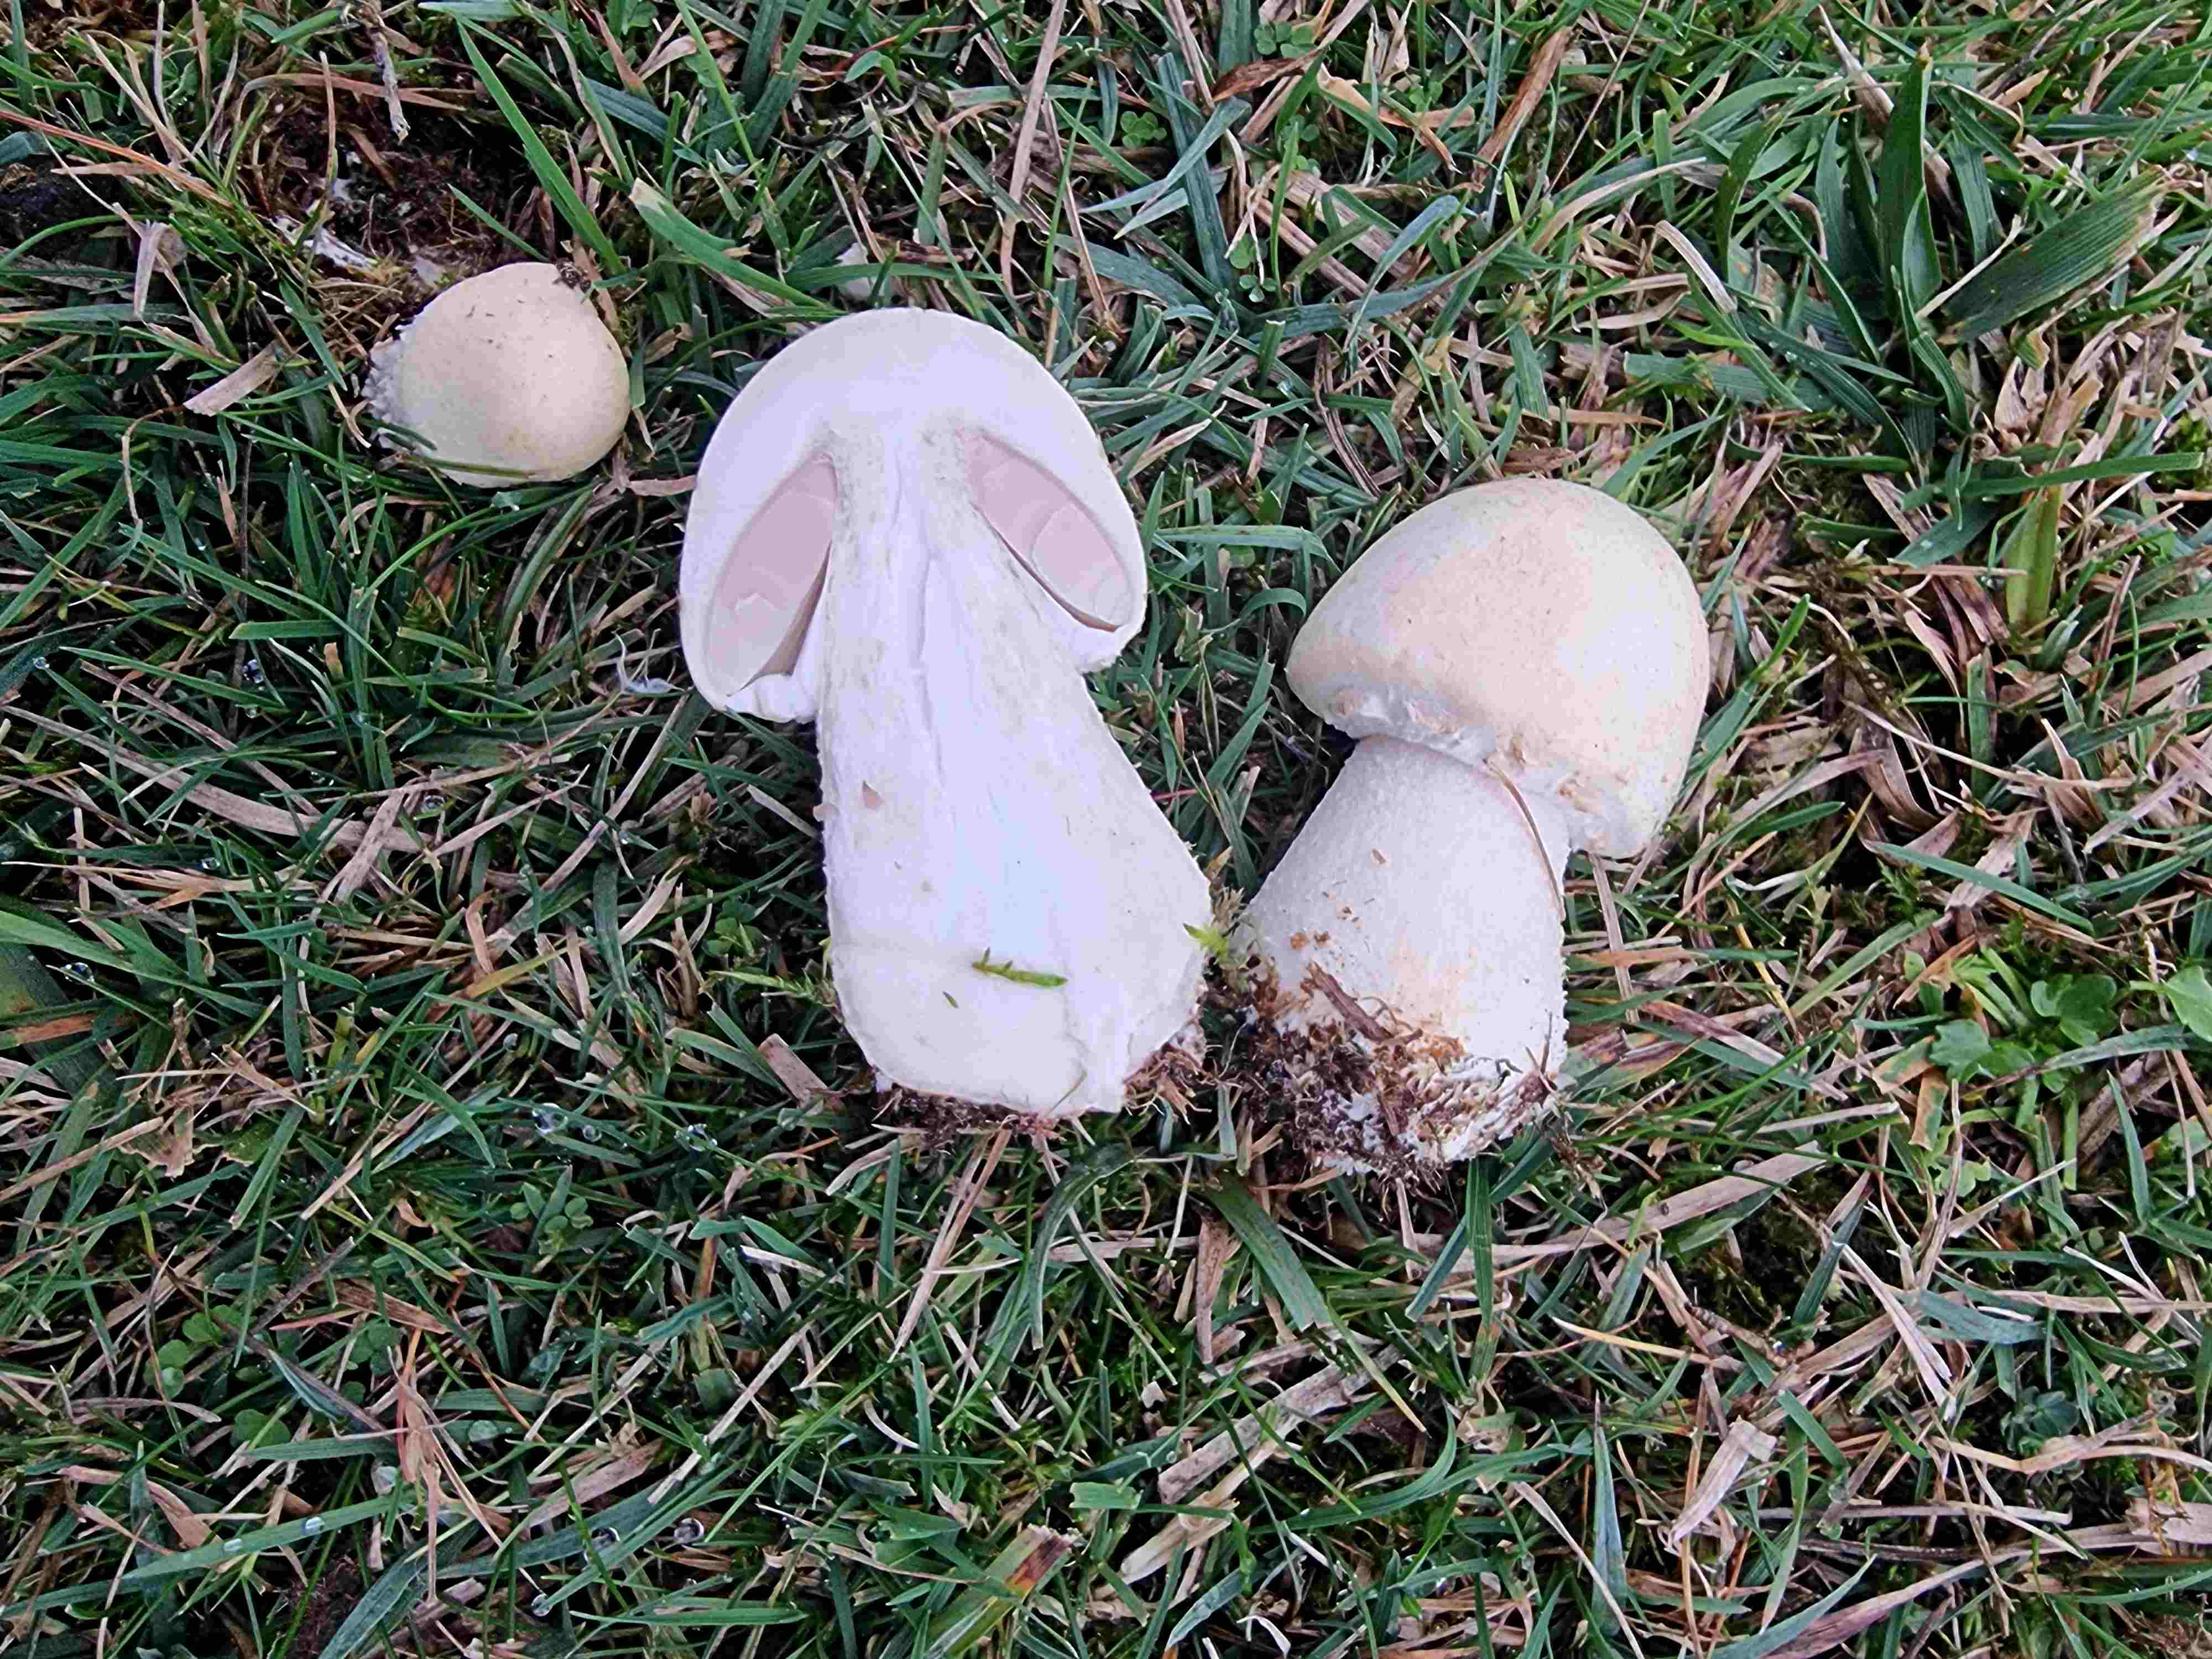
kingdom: Fungi
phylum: Basidiomycota
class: Agaricomycetes
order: Agaricales
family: Agaricaceae
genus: Agaricus
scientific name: Agaricus
